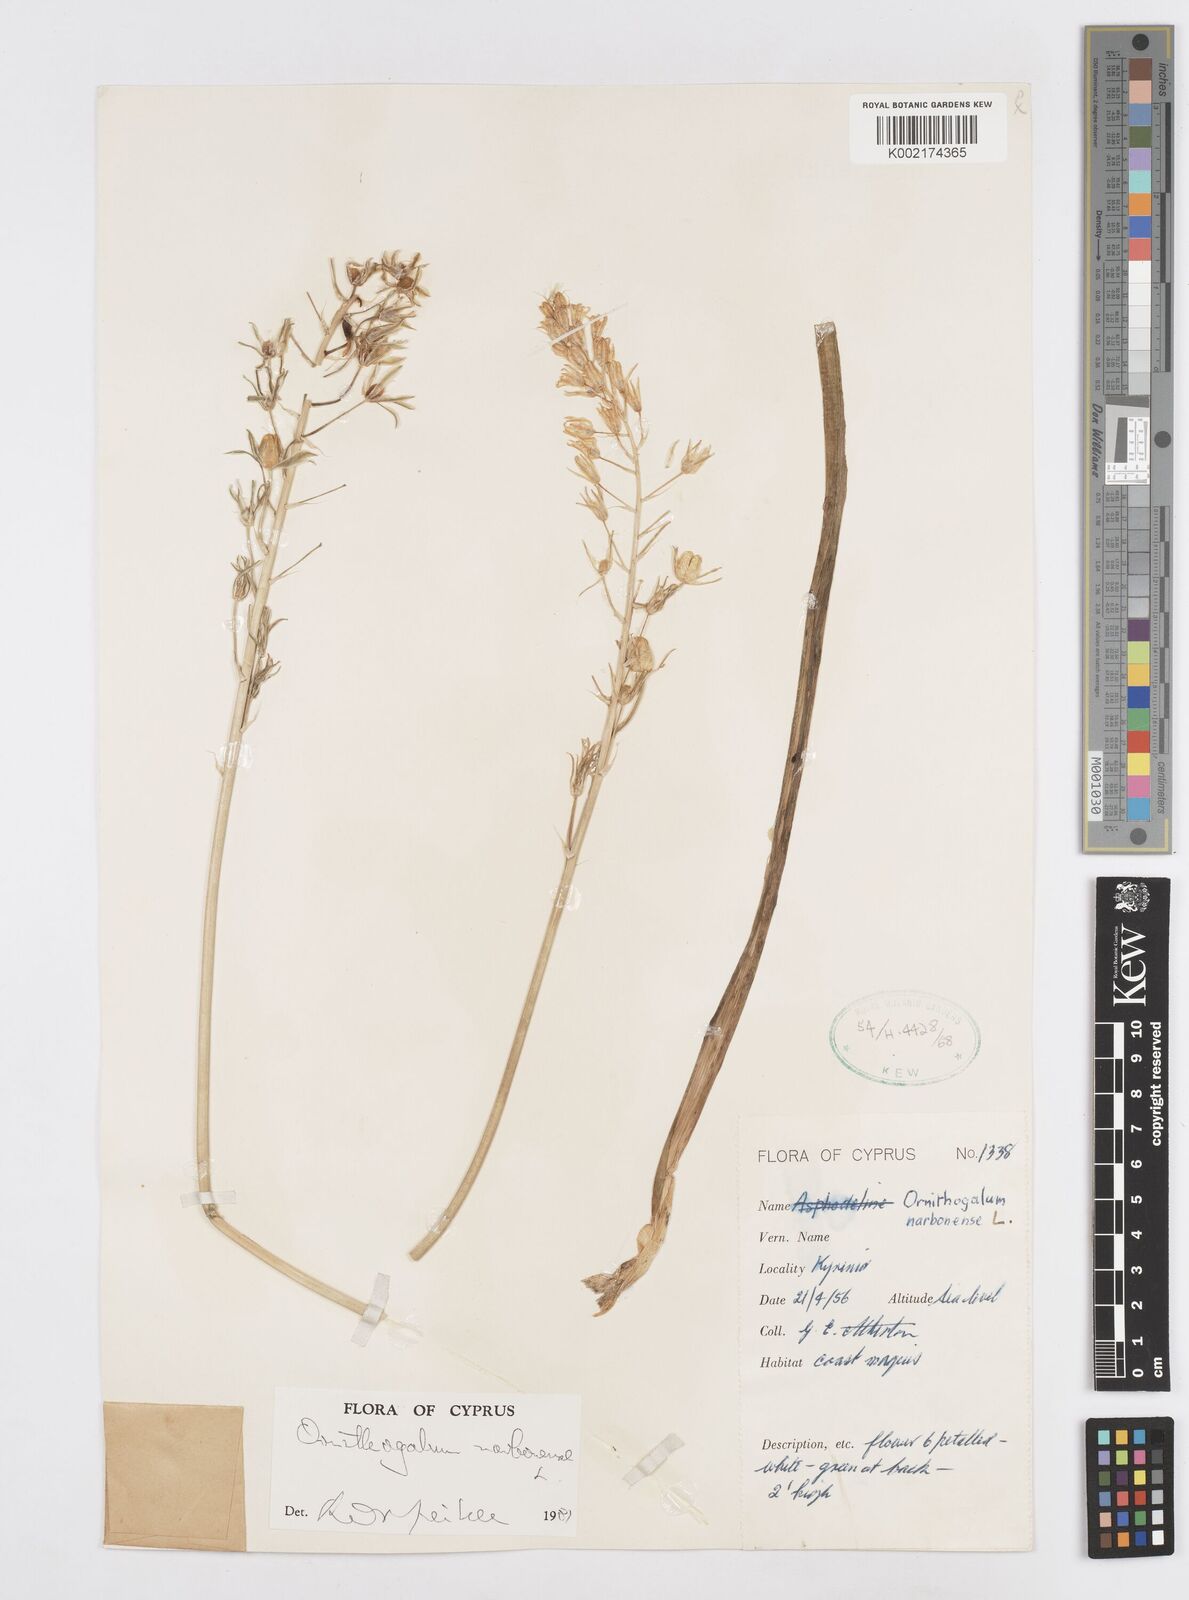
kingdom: Plantae
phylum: Tracheophyta
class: Liliopsida
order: Asparagales
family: Asparagaceae
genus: Ornithogalum
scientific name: Ornithogalum narbonense
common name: Bath-asparagus
